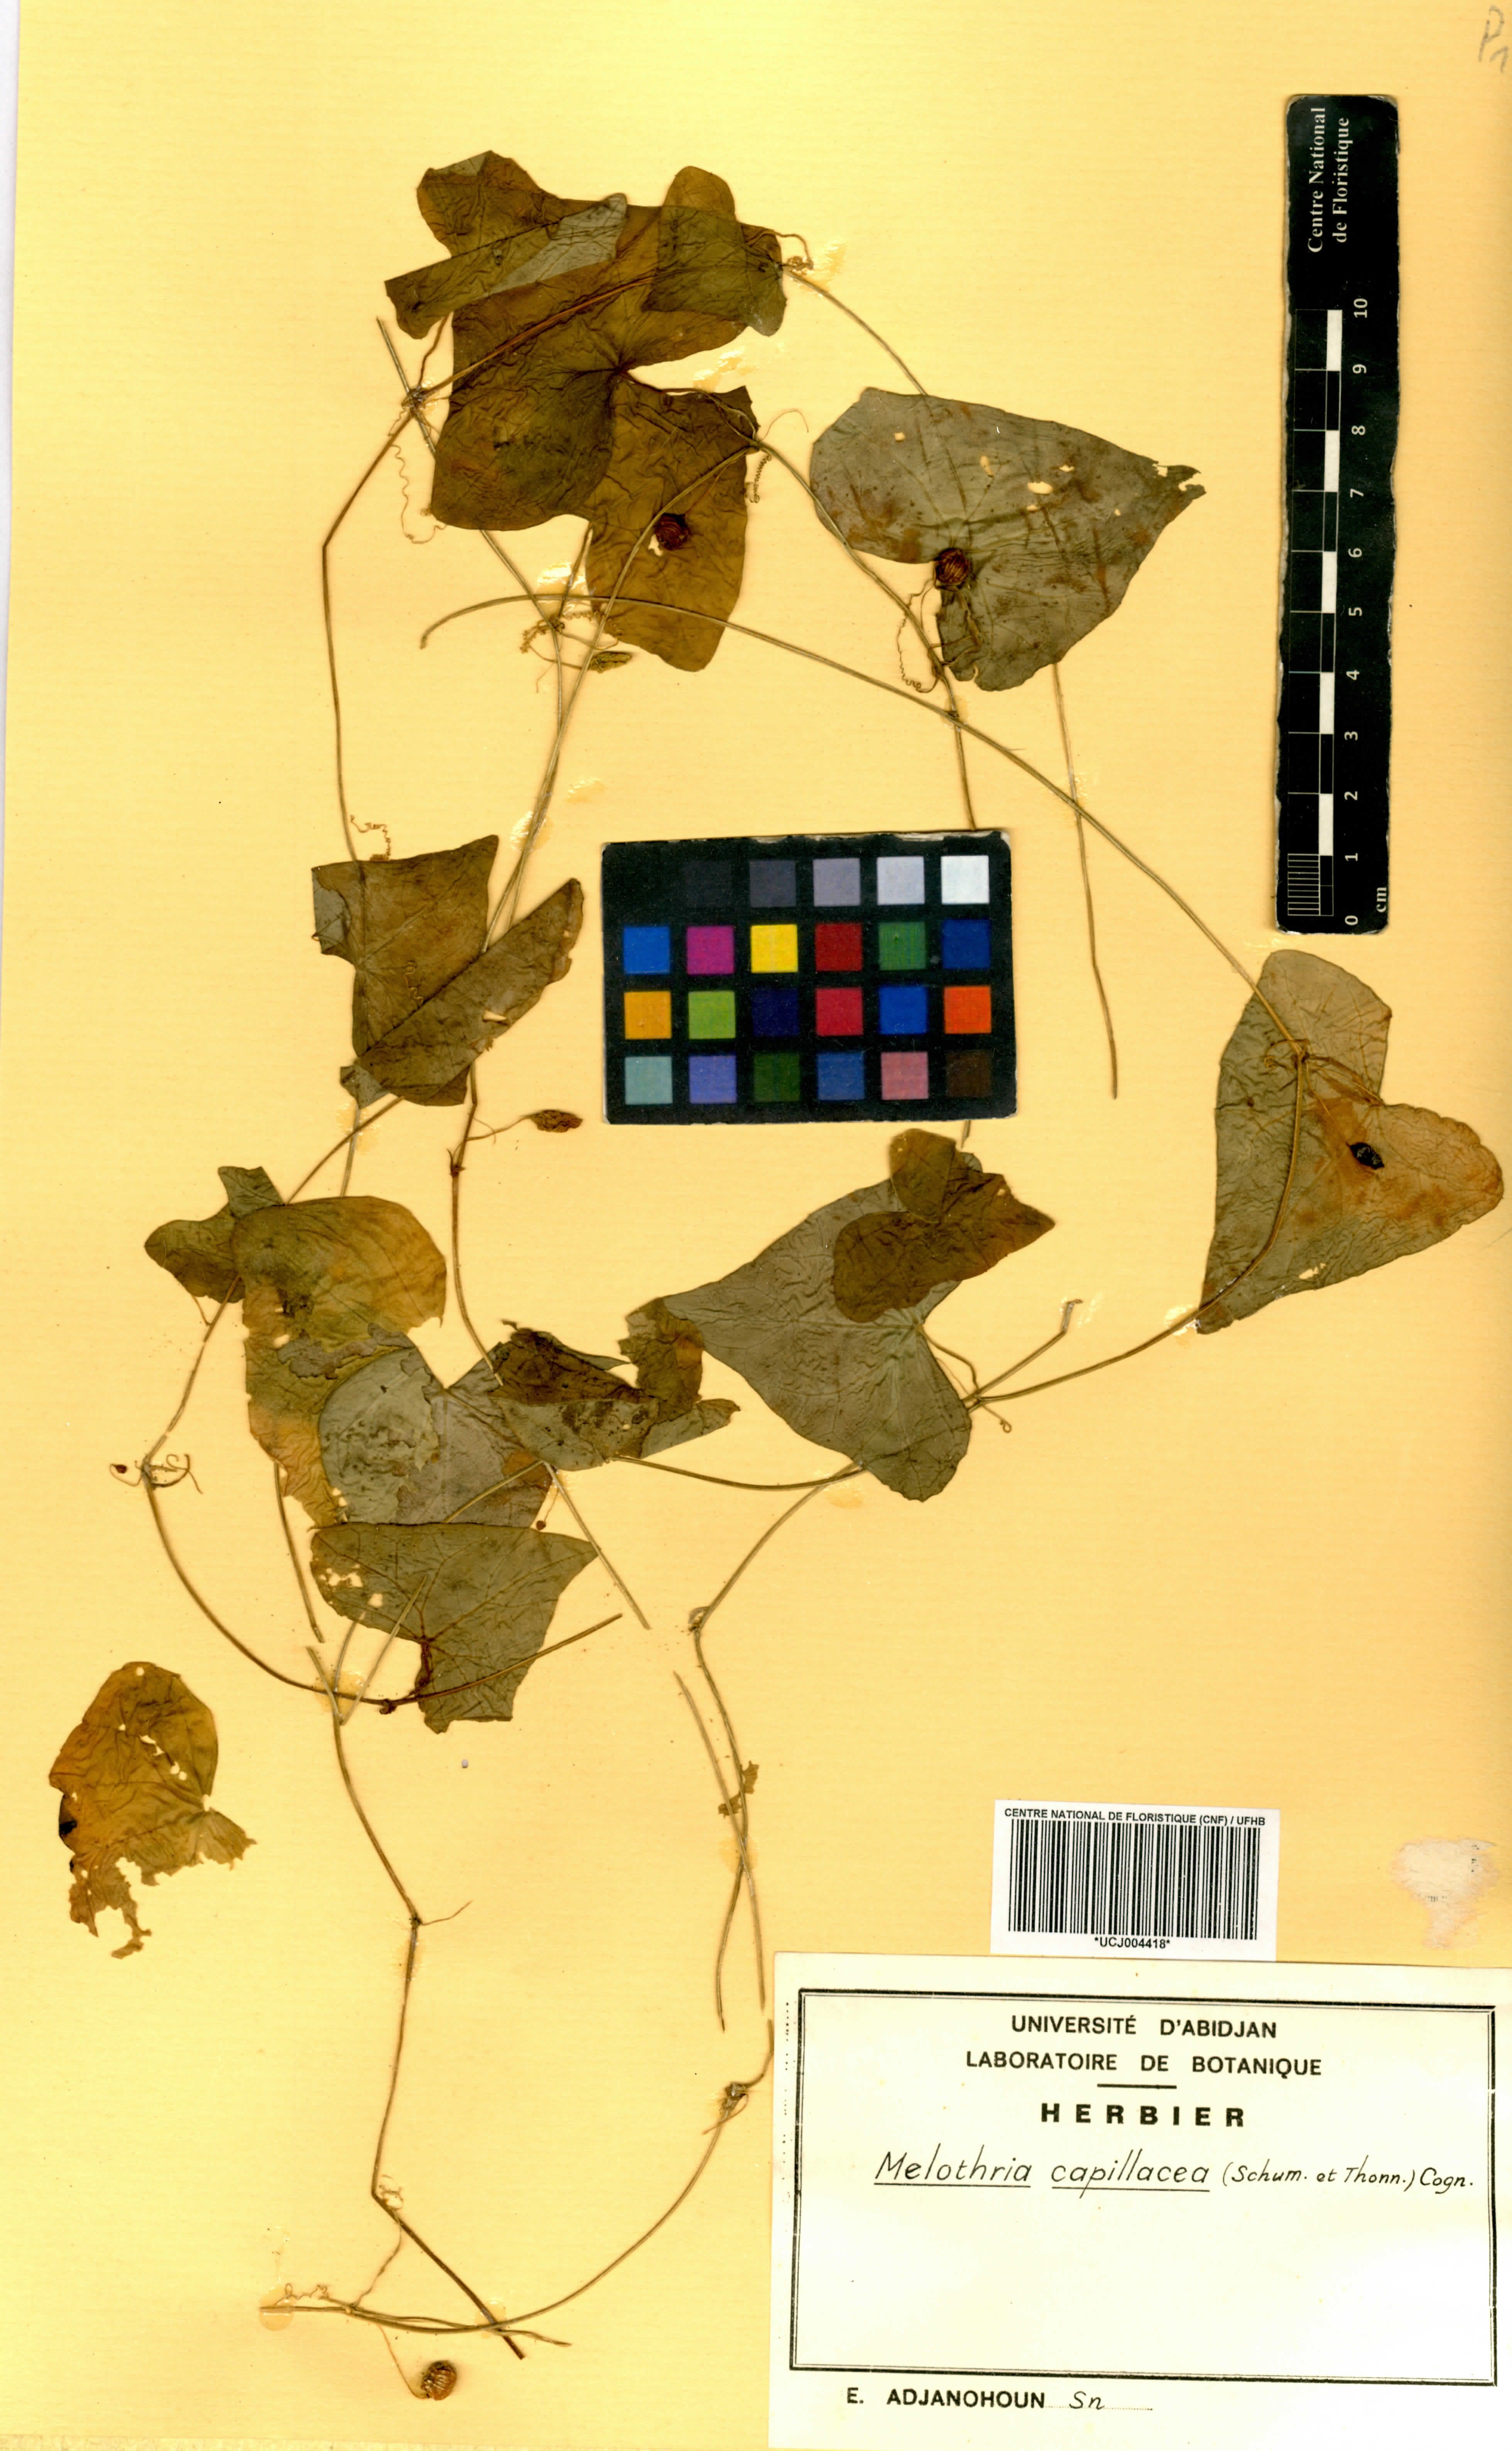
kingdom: Plantae
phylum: Tracheophyta
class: Magnoliopsida
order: Cucurbitales
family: Cucurbitaceae
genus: Zehneria
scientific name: Zehneria capillacea
